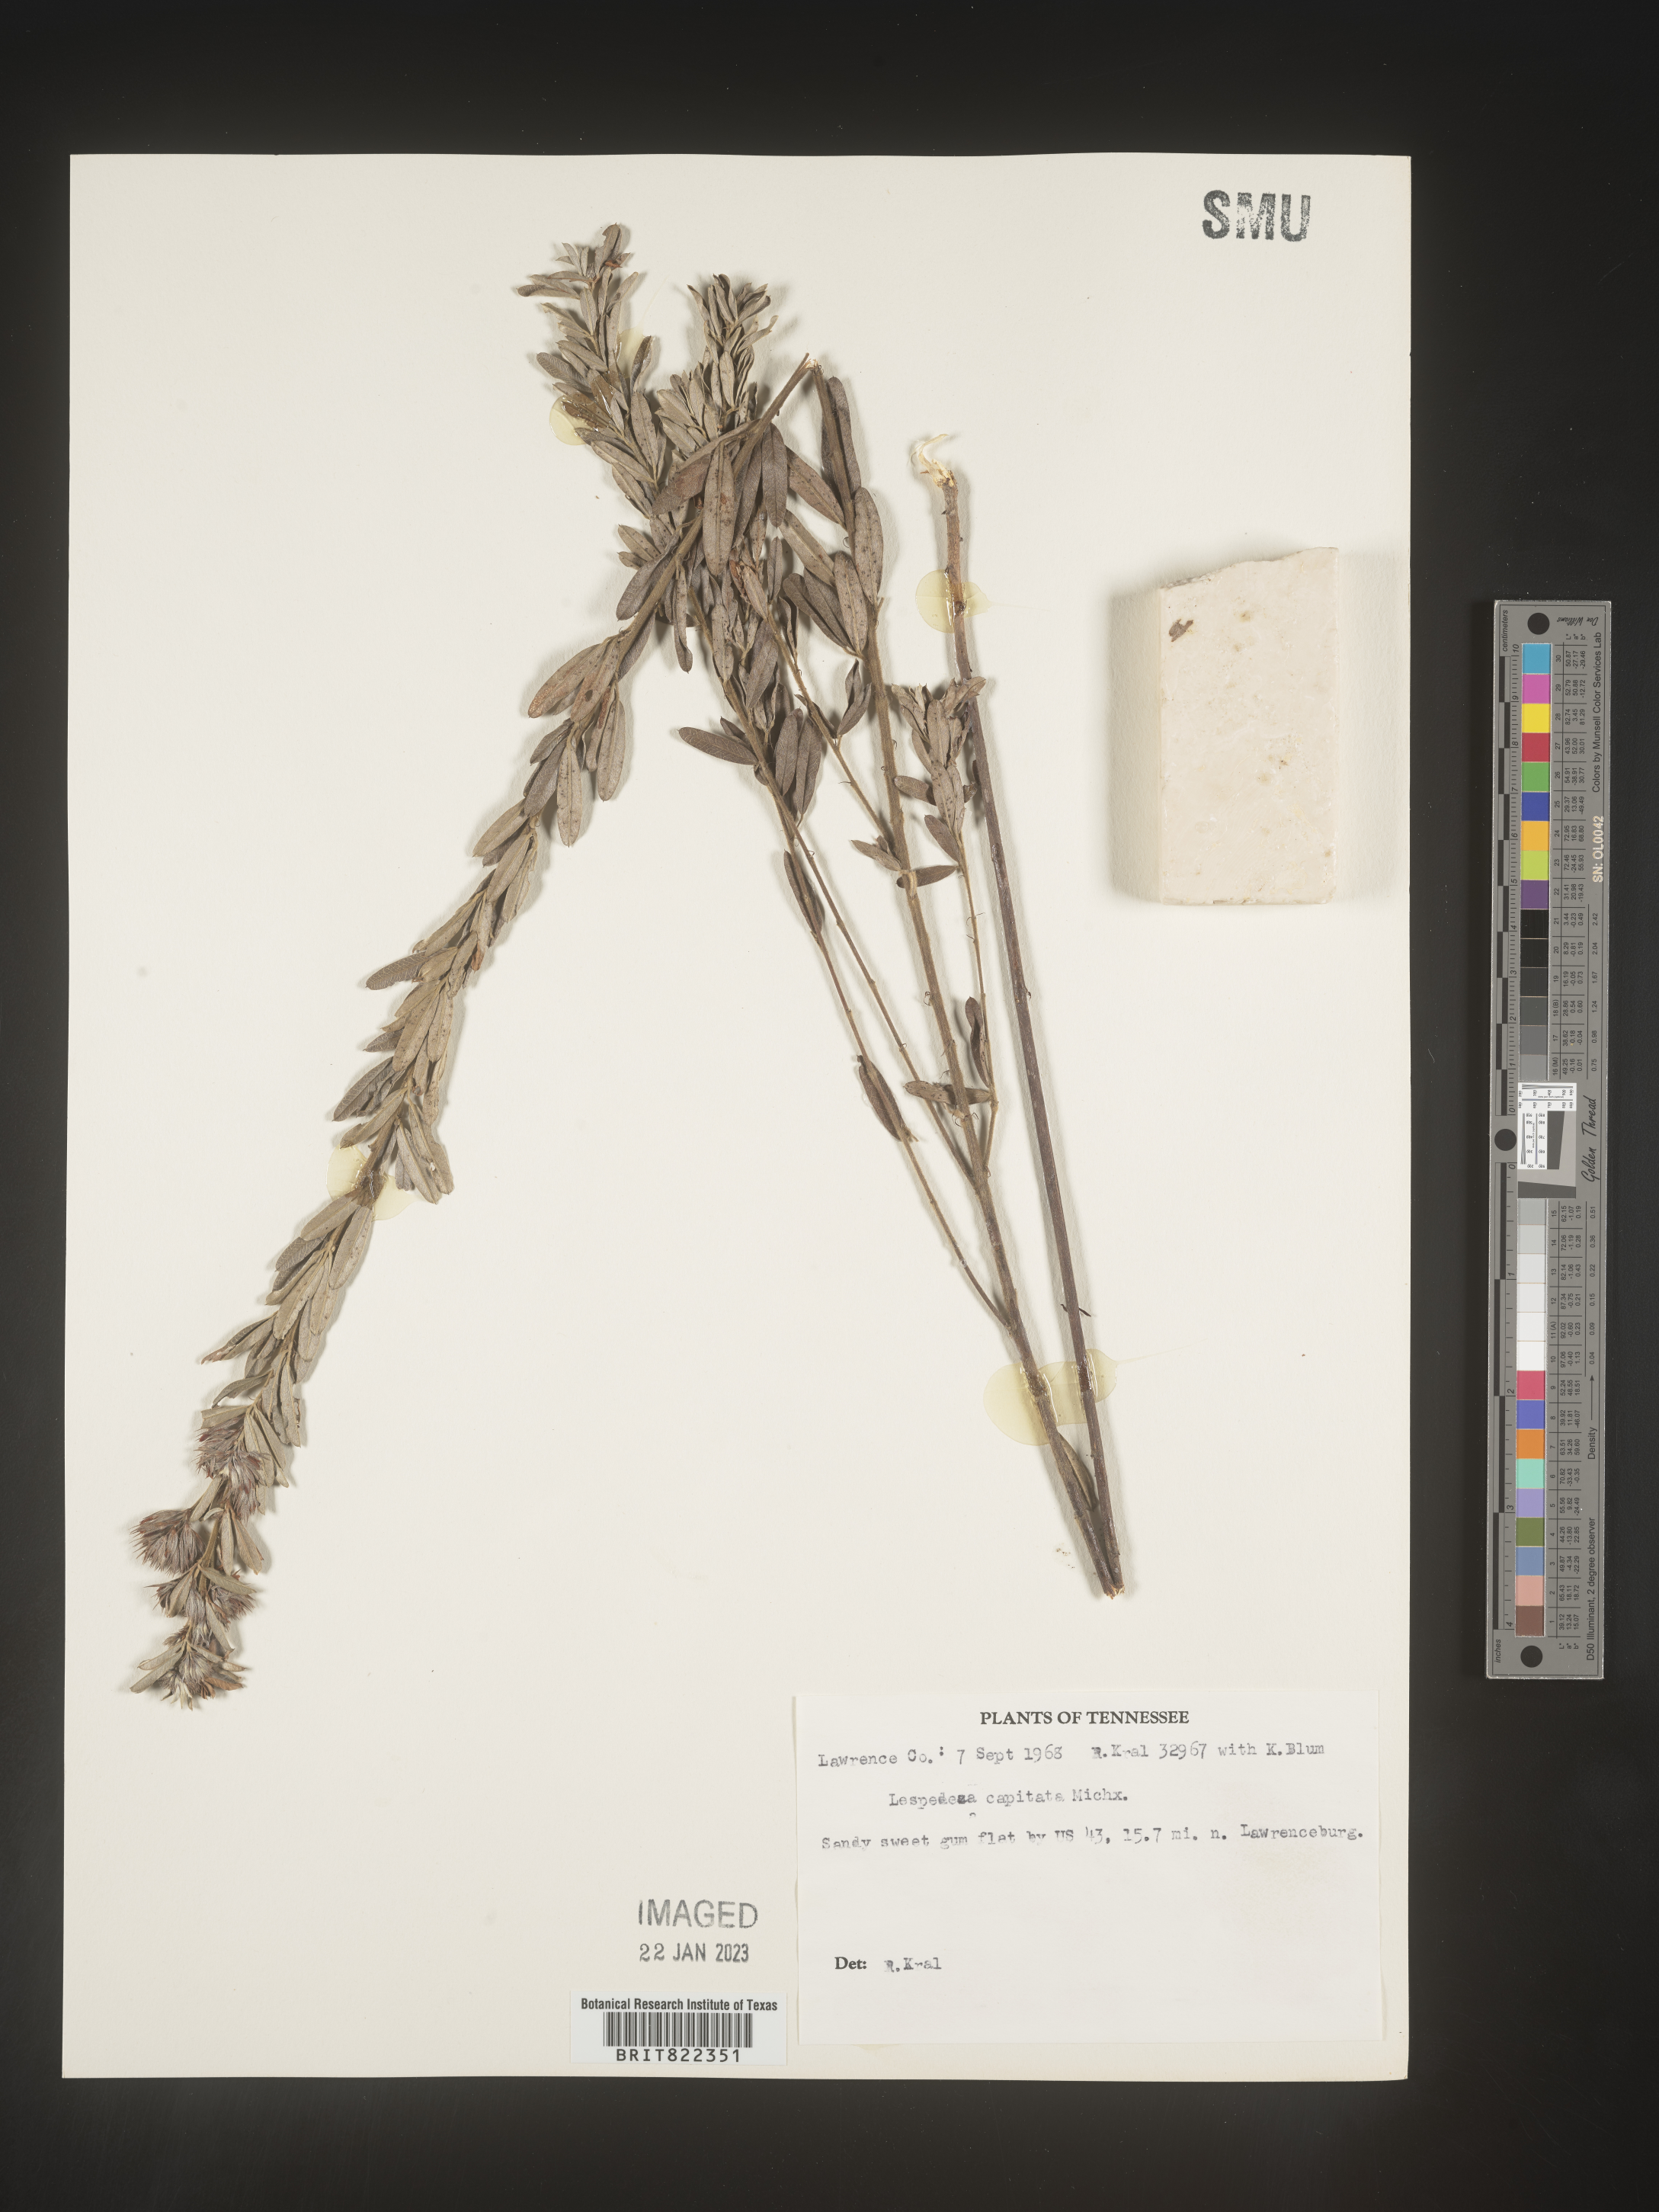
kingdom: Plantae
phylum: Tracheophyta
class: Magnoliopsida
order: Fabales
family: Fabaceae
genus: Lespedeza
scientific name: Lespedeza capitata
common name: Dusty clover
